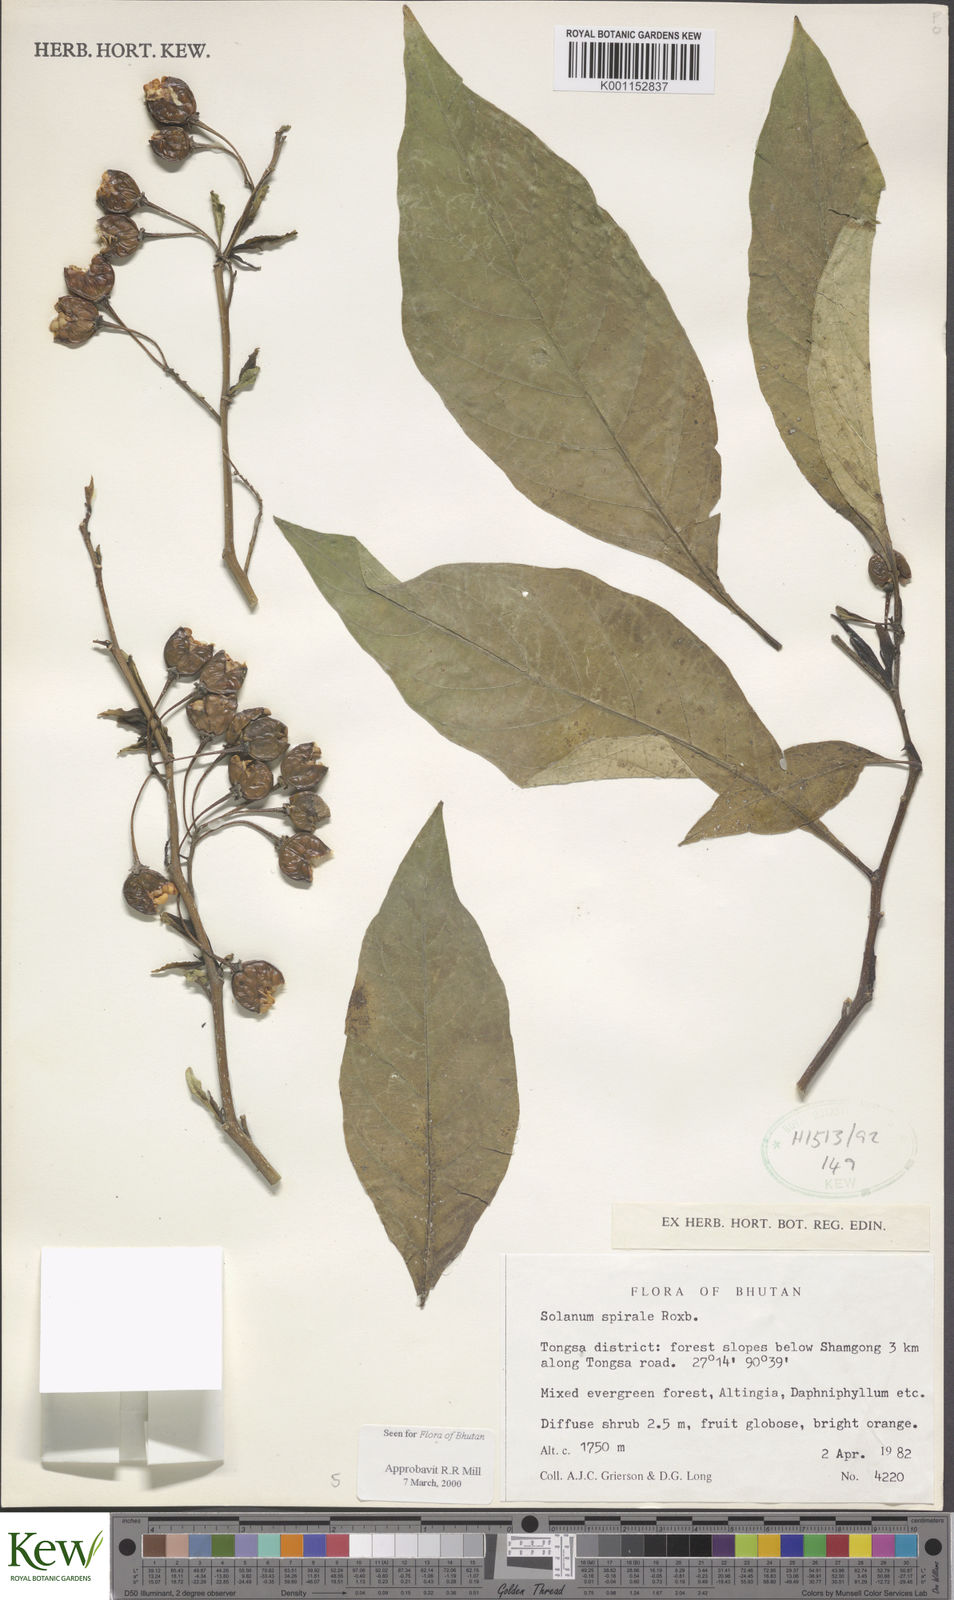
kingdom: Plantae
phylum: Tracheophyta
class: Magnoliopsida
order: Solanales
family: Solanaceae
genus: Solanum
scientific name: Solanum spirale
